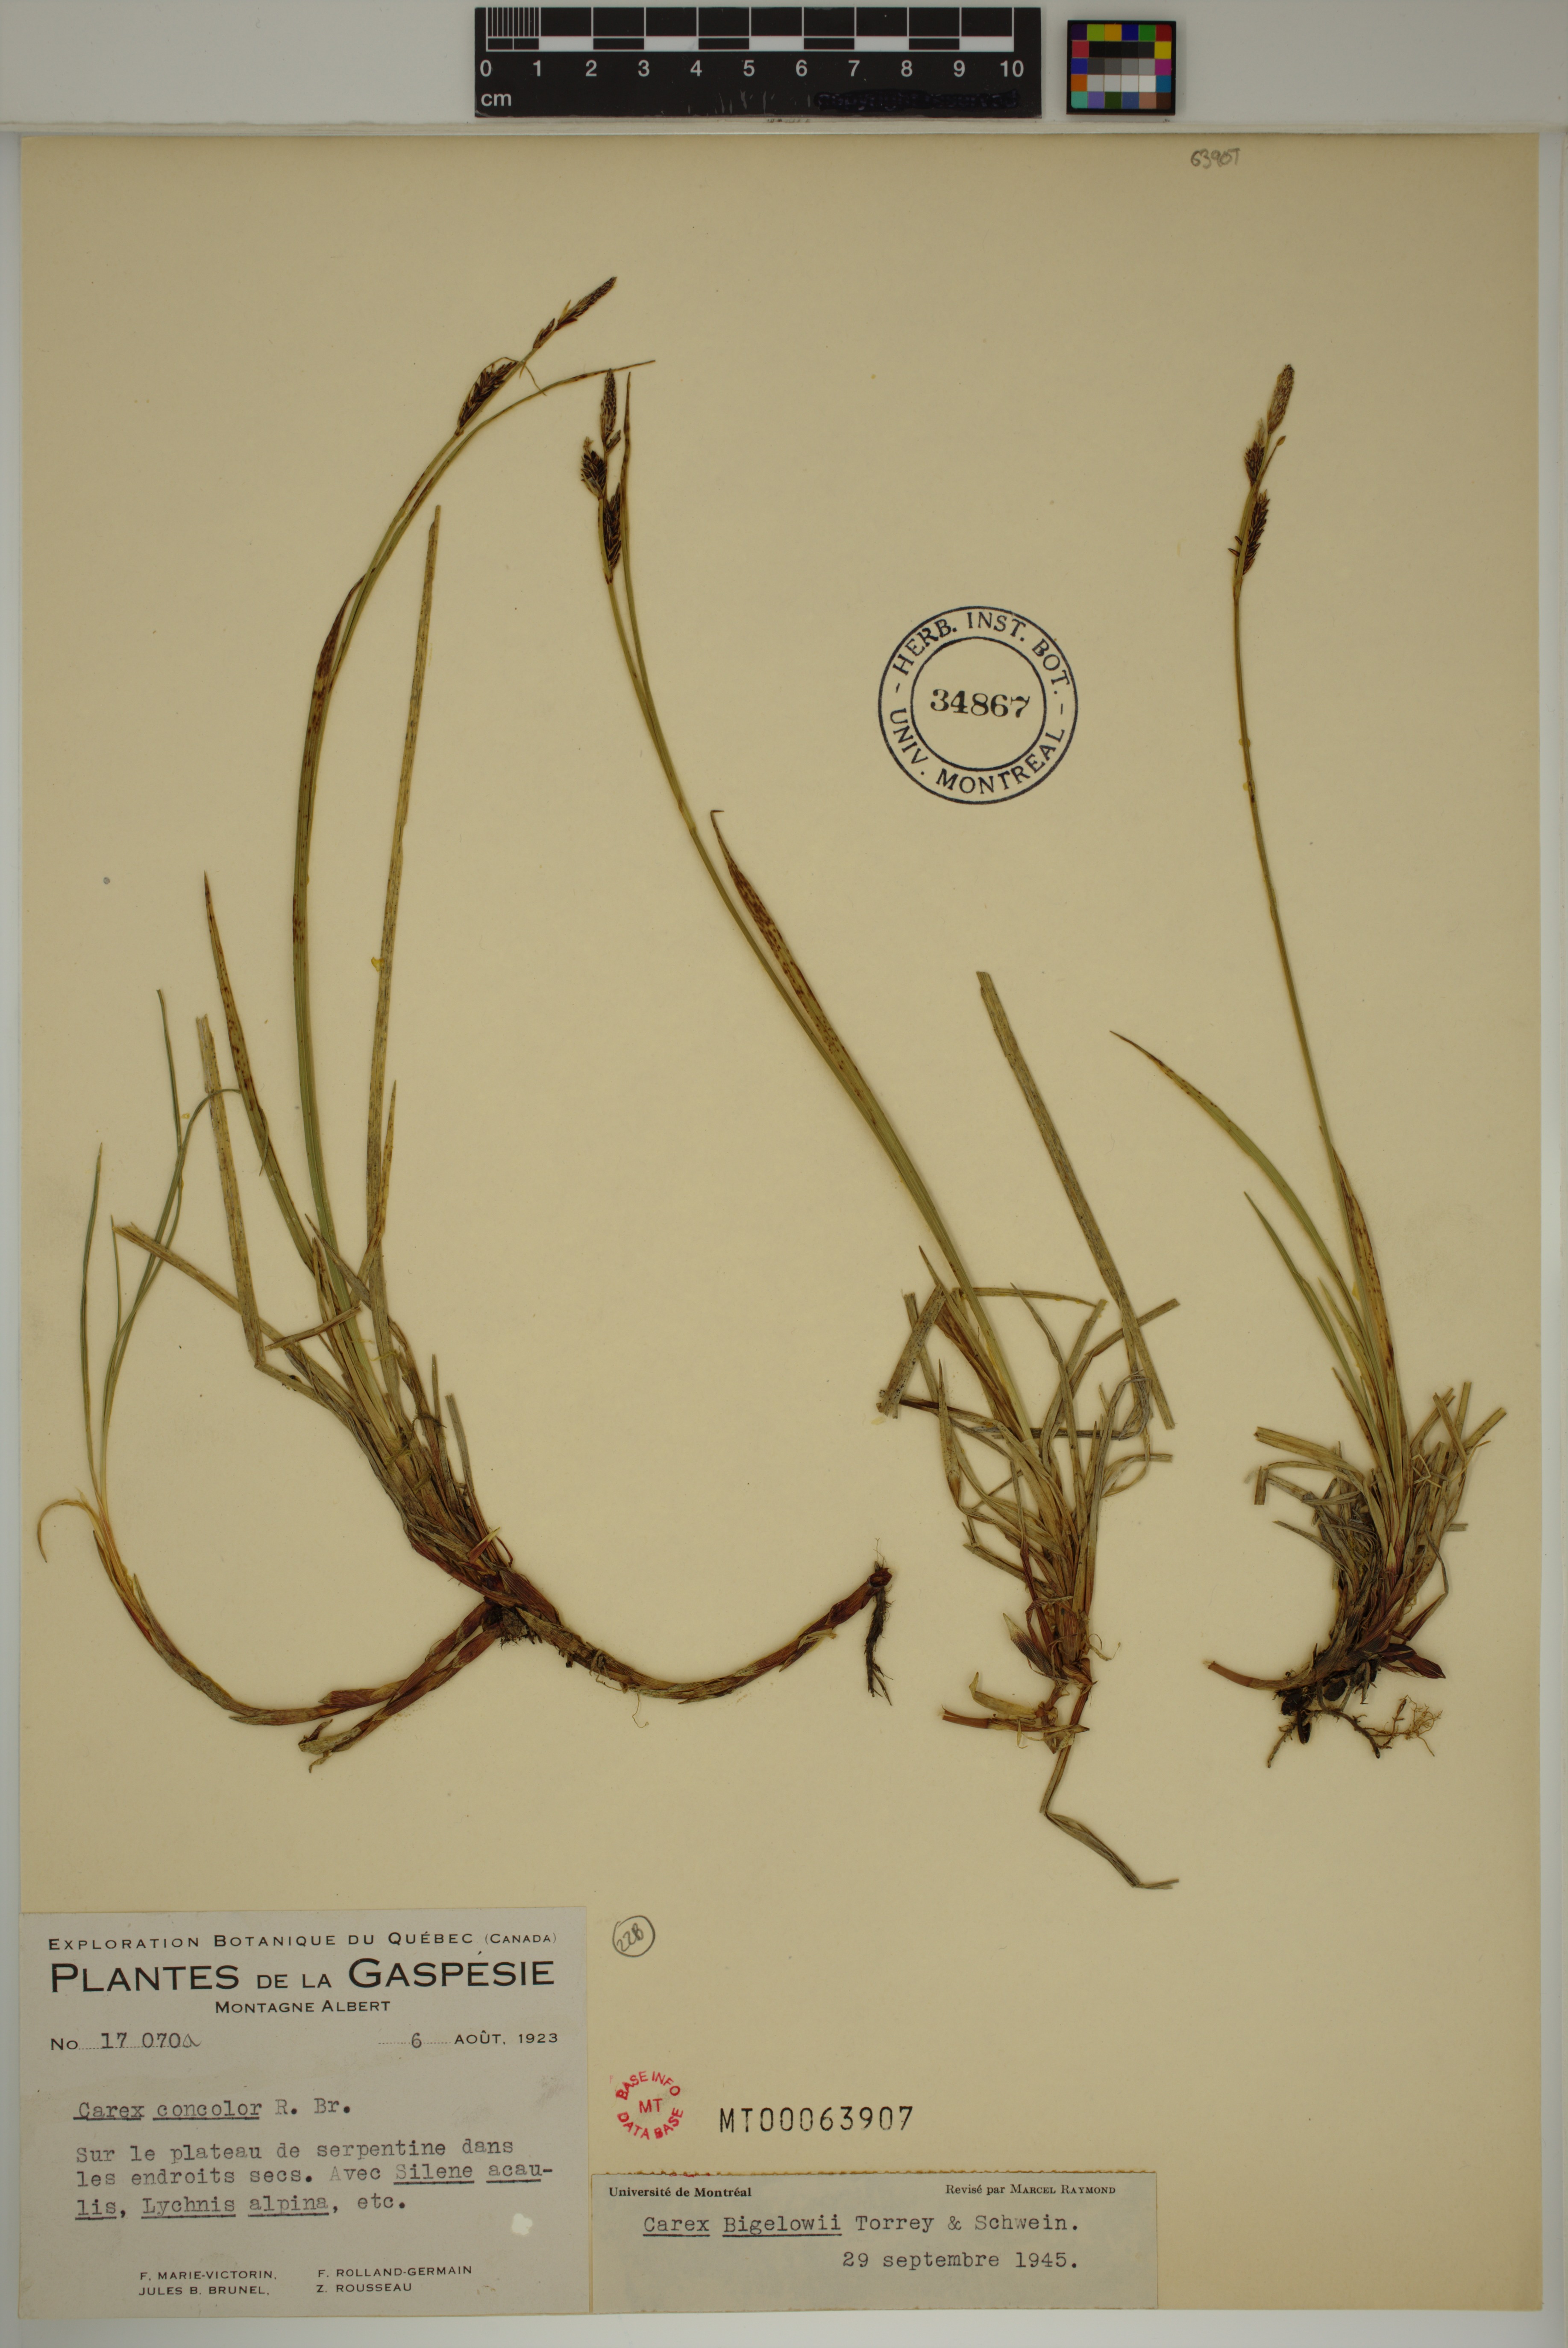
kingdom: Plantae
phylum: Tracheophyta
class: Liliopsida
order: Poales
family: Cyperaceae
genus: Carex
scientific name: Carex bigelowii
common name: Stiff sedge
